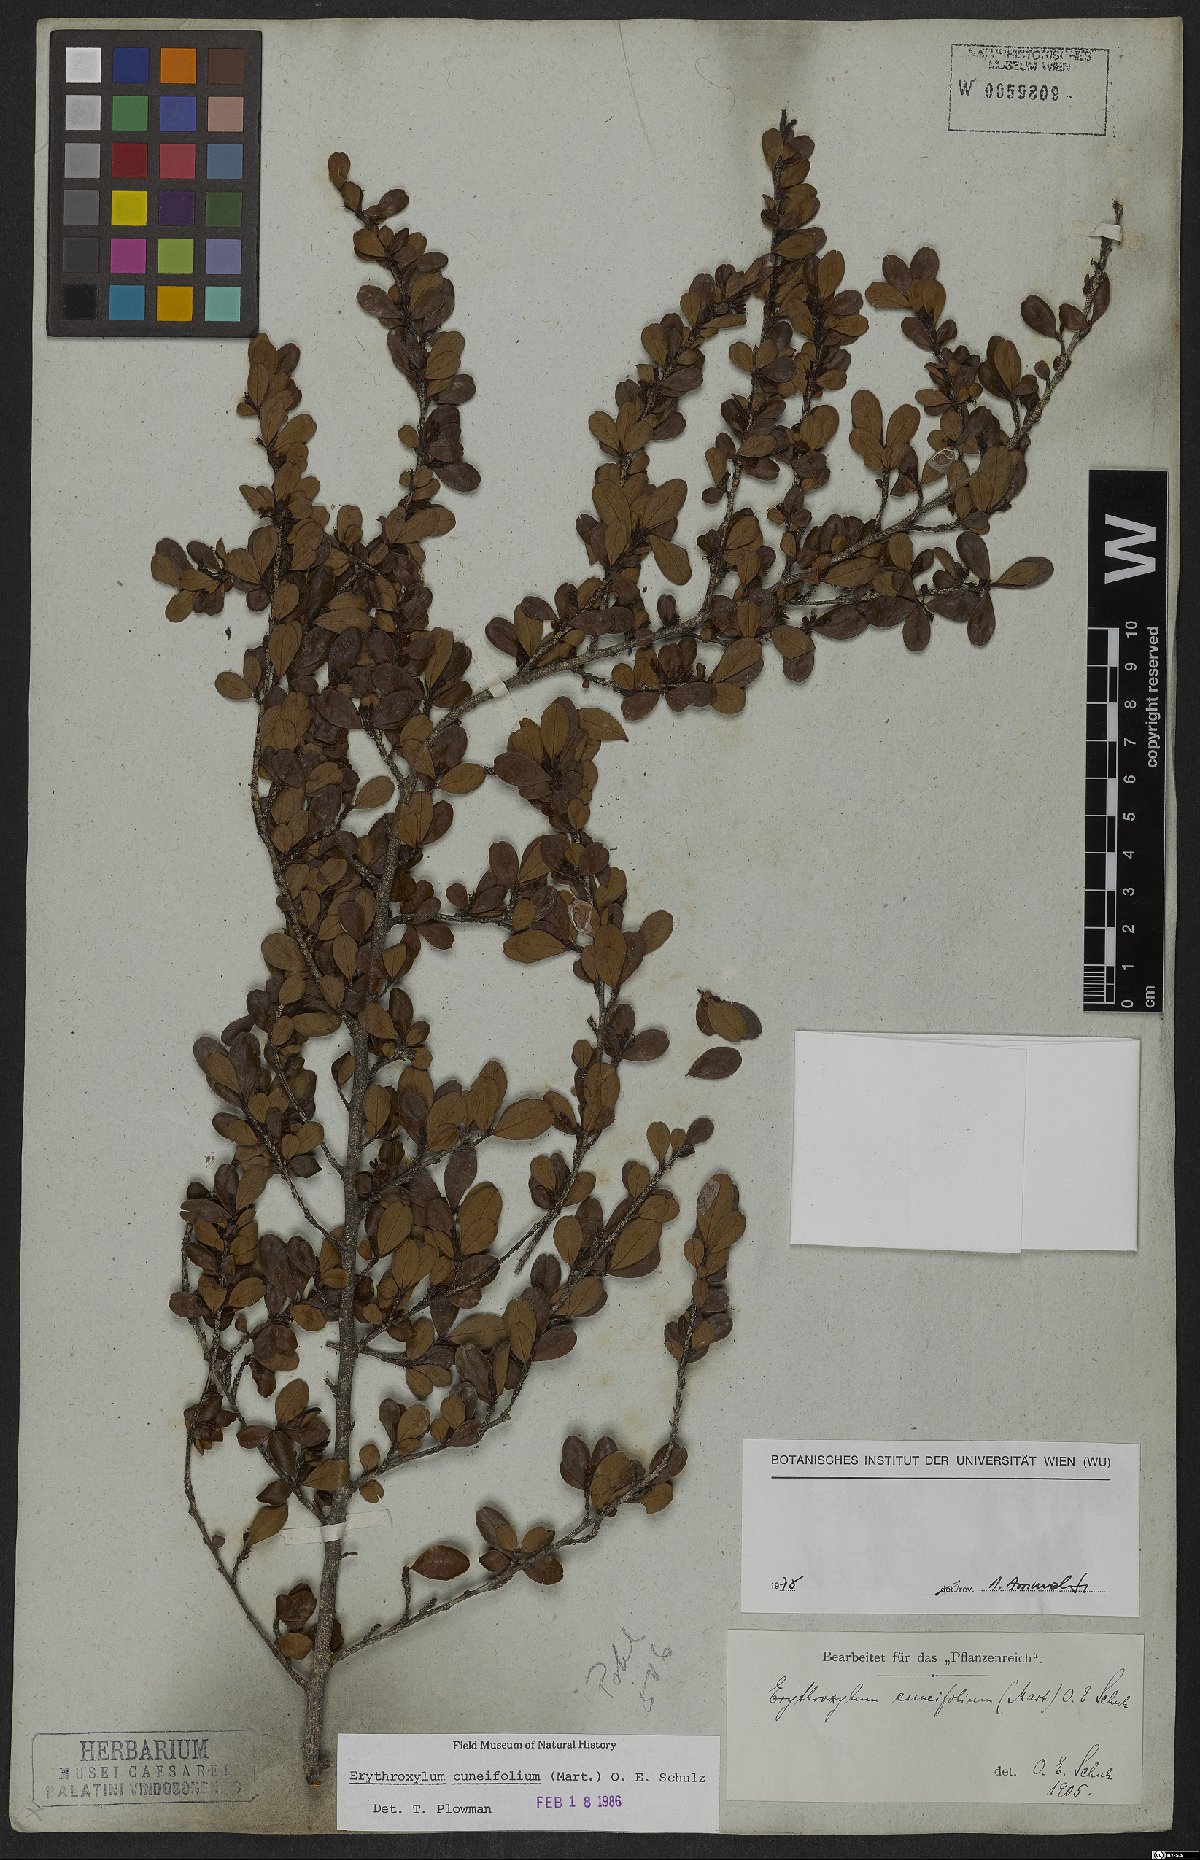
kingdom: Plantae
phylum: Tracheophyta
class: Magnoliopsida
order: Malpighiales
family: Erythroxylaceae
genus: Erythroxylum
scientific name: Erythroxylum cuneifolium
